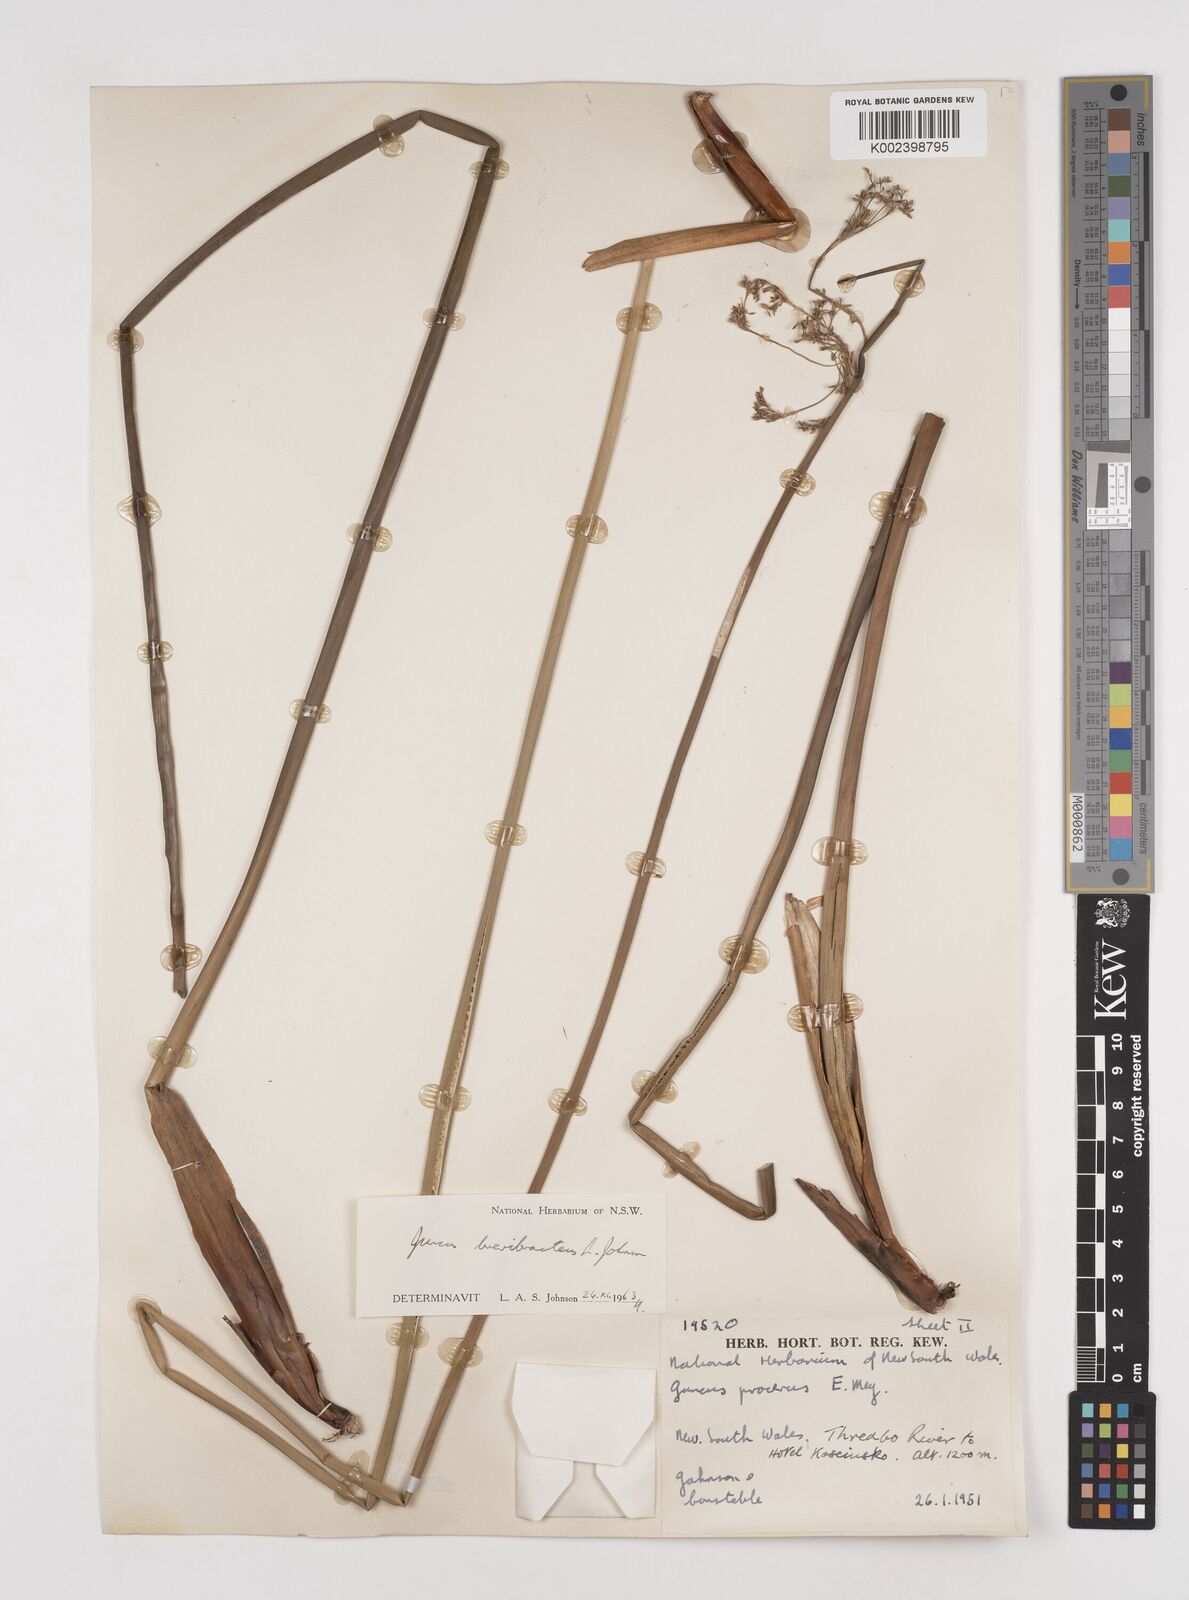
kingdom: Plantae
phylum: Tracheophyta
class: Liliopsida
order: Poales
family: Juncaceae
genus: Juncus
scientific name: Juncus brevibracteus
